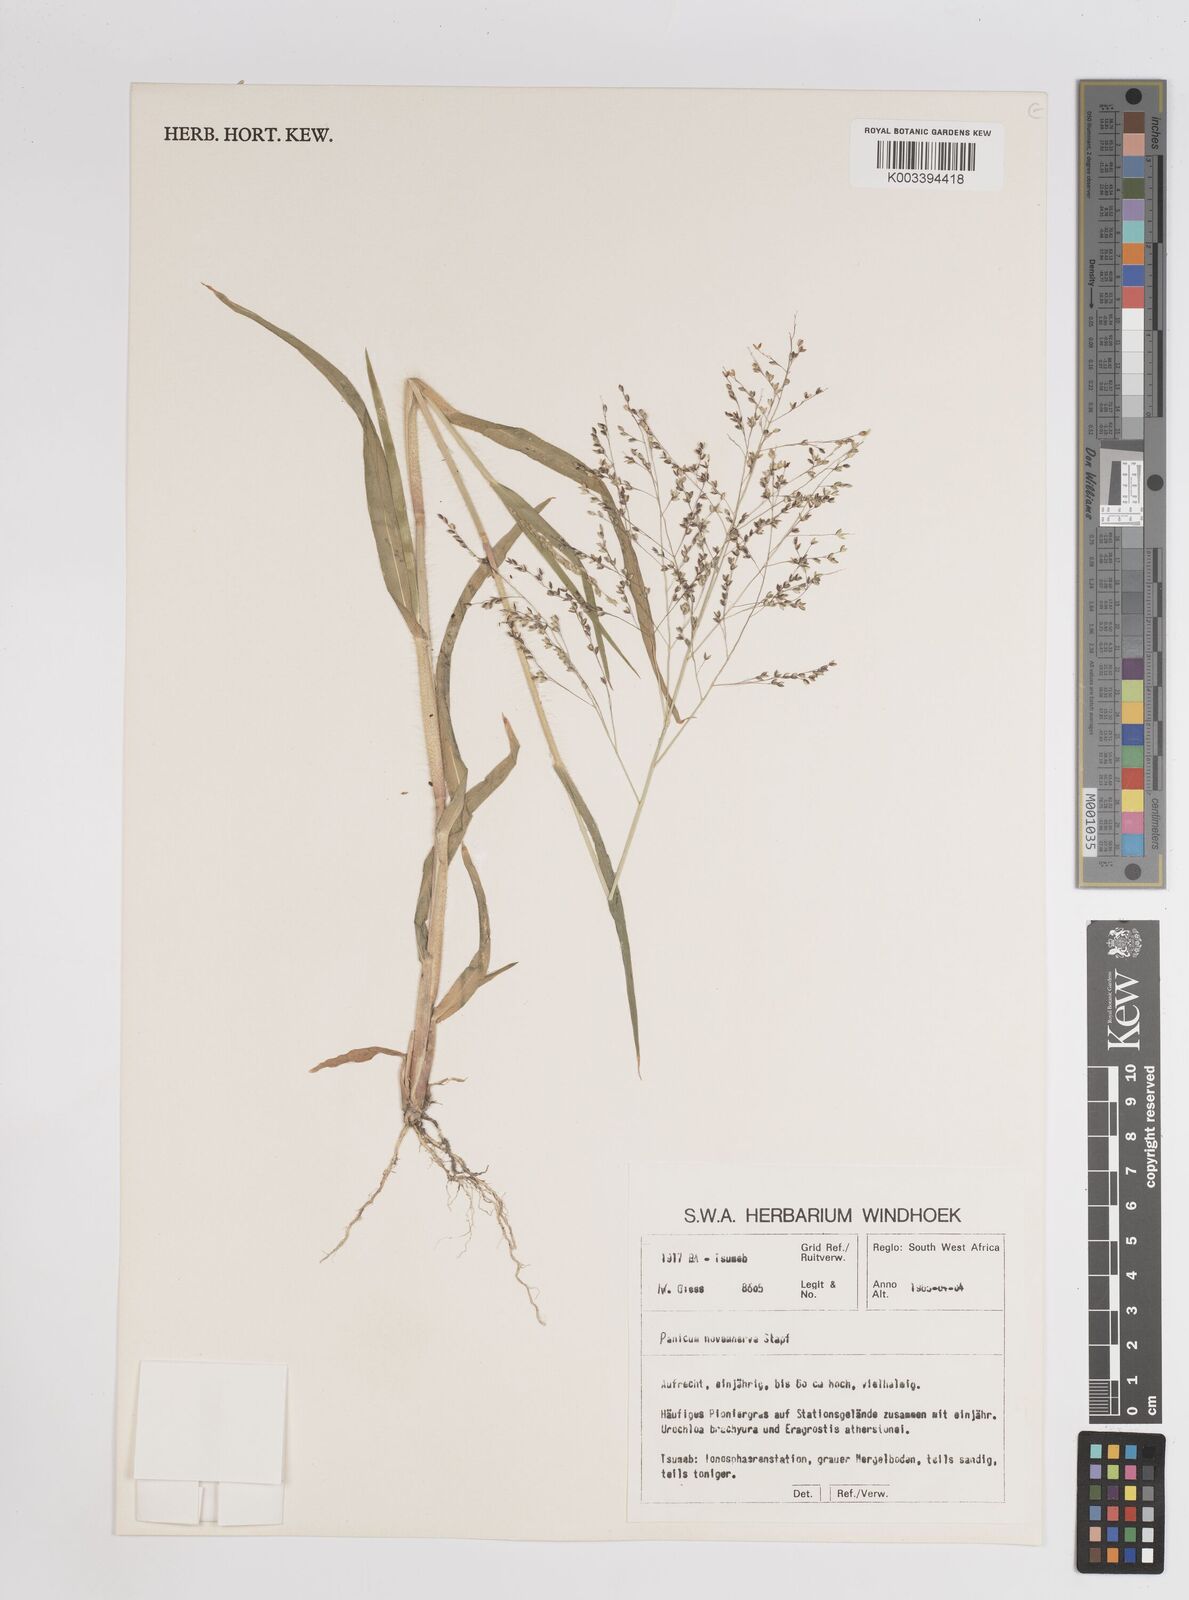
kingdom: Plantae
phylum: Tracheophyta
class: Liliopsida
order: Poales
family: Poaceae
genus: Panicum
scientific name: Panicum simulans
